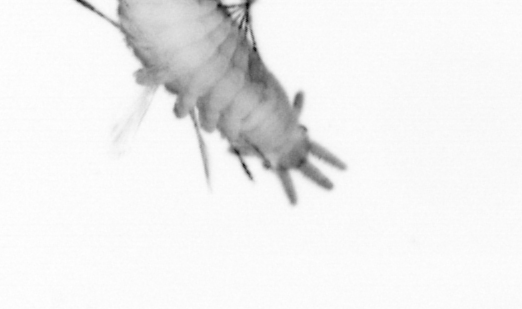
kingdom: Animalia
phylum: Annelida
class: Polychaeta
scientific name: Polychaeta
